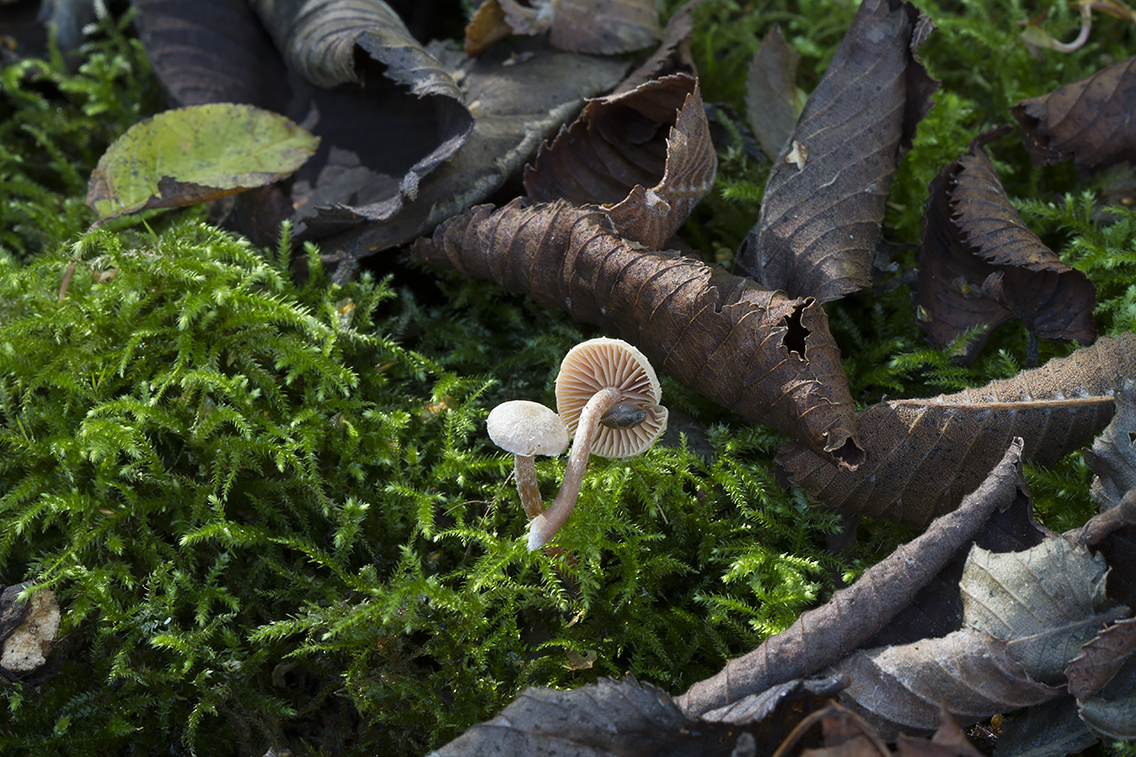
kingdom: Fungi
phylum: Basidiomycota
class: Agaricomycetes
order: Agaricales
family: Tubariaceae
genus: Tubaria
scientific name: Tubaria conspersa
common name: bleg fnughat
